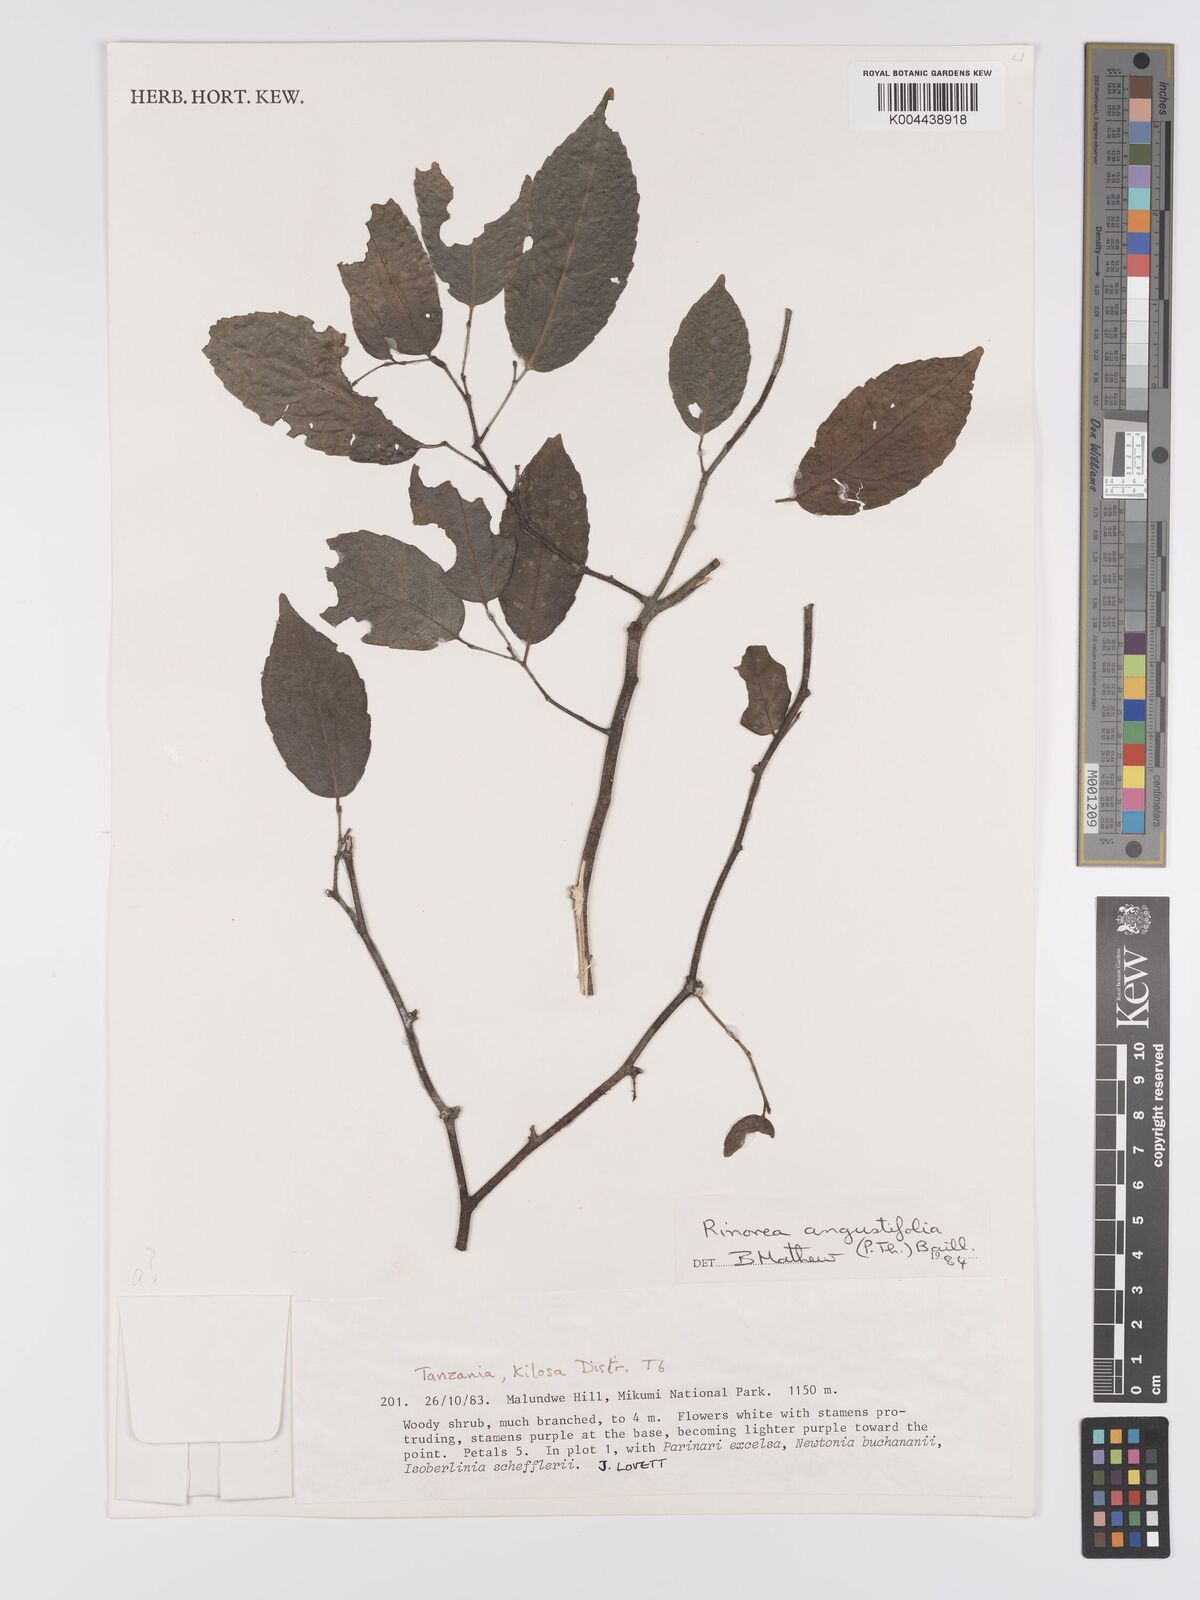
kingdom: Plantae
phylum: Tracheophyta
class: Magnoliopsida
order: Malpighiales
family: Violaceae
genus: Rinorea
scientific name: Rinorea angustifolia
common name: White violet-bush
